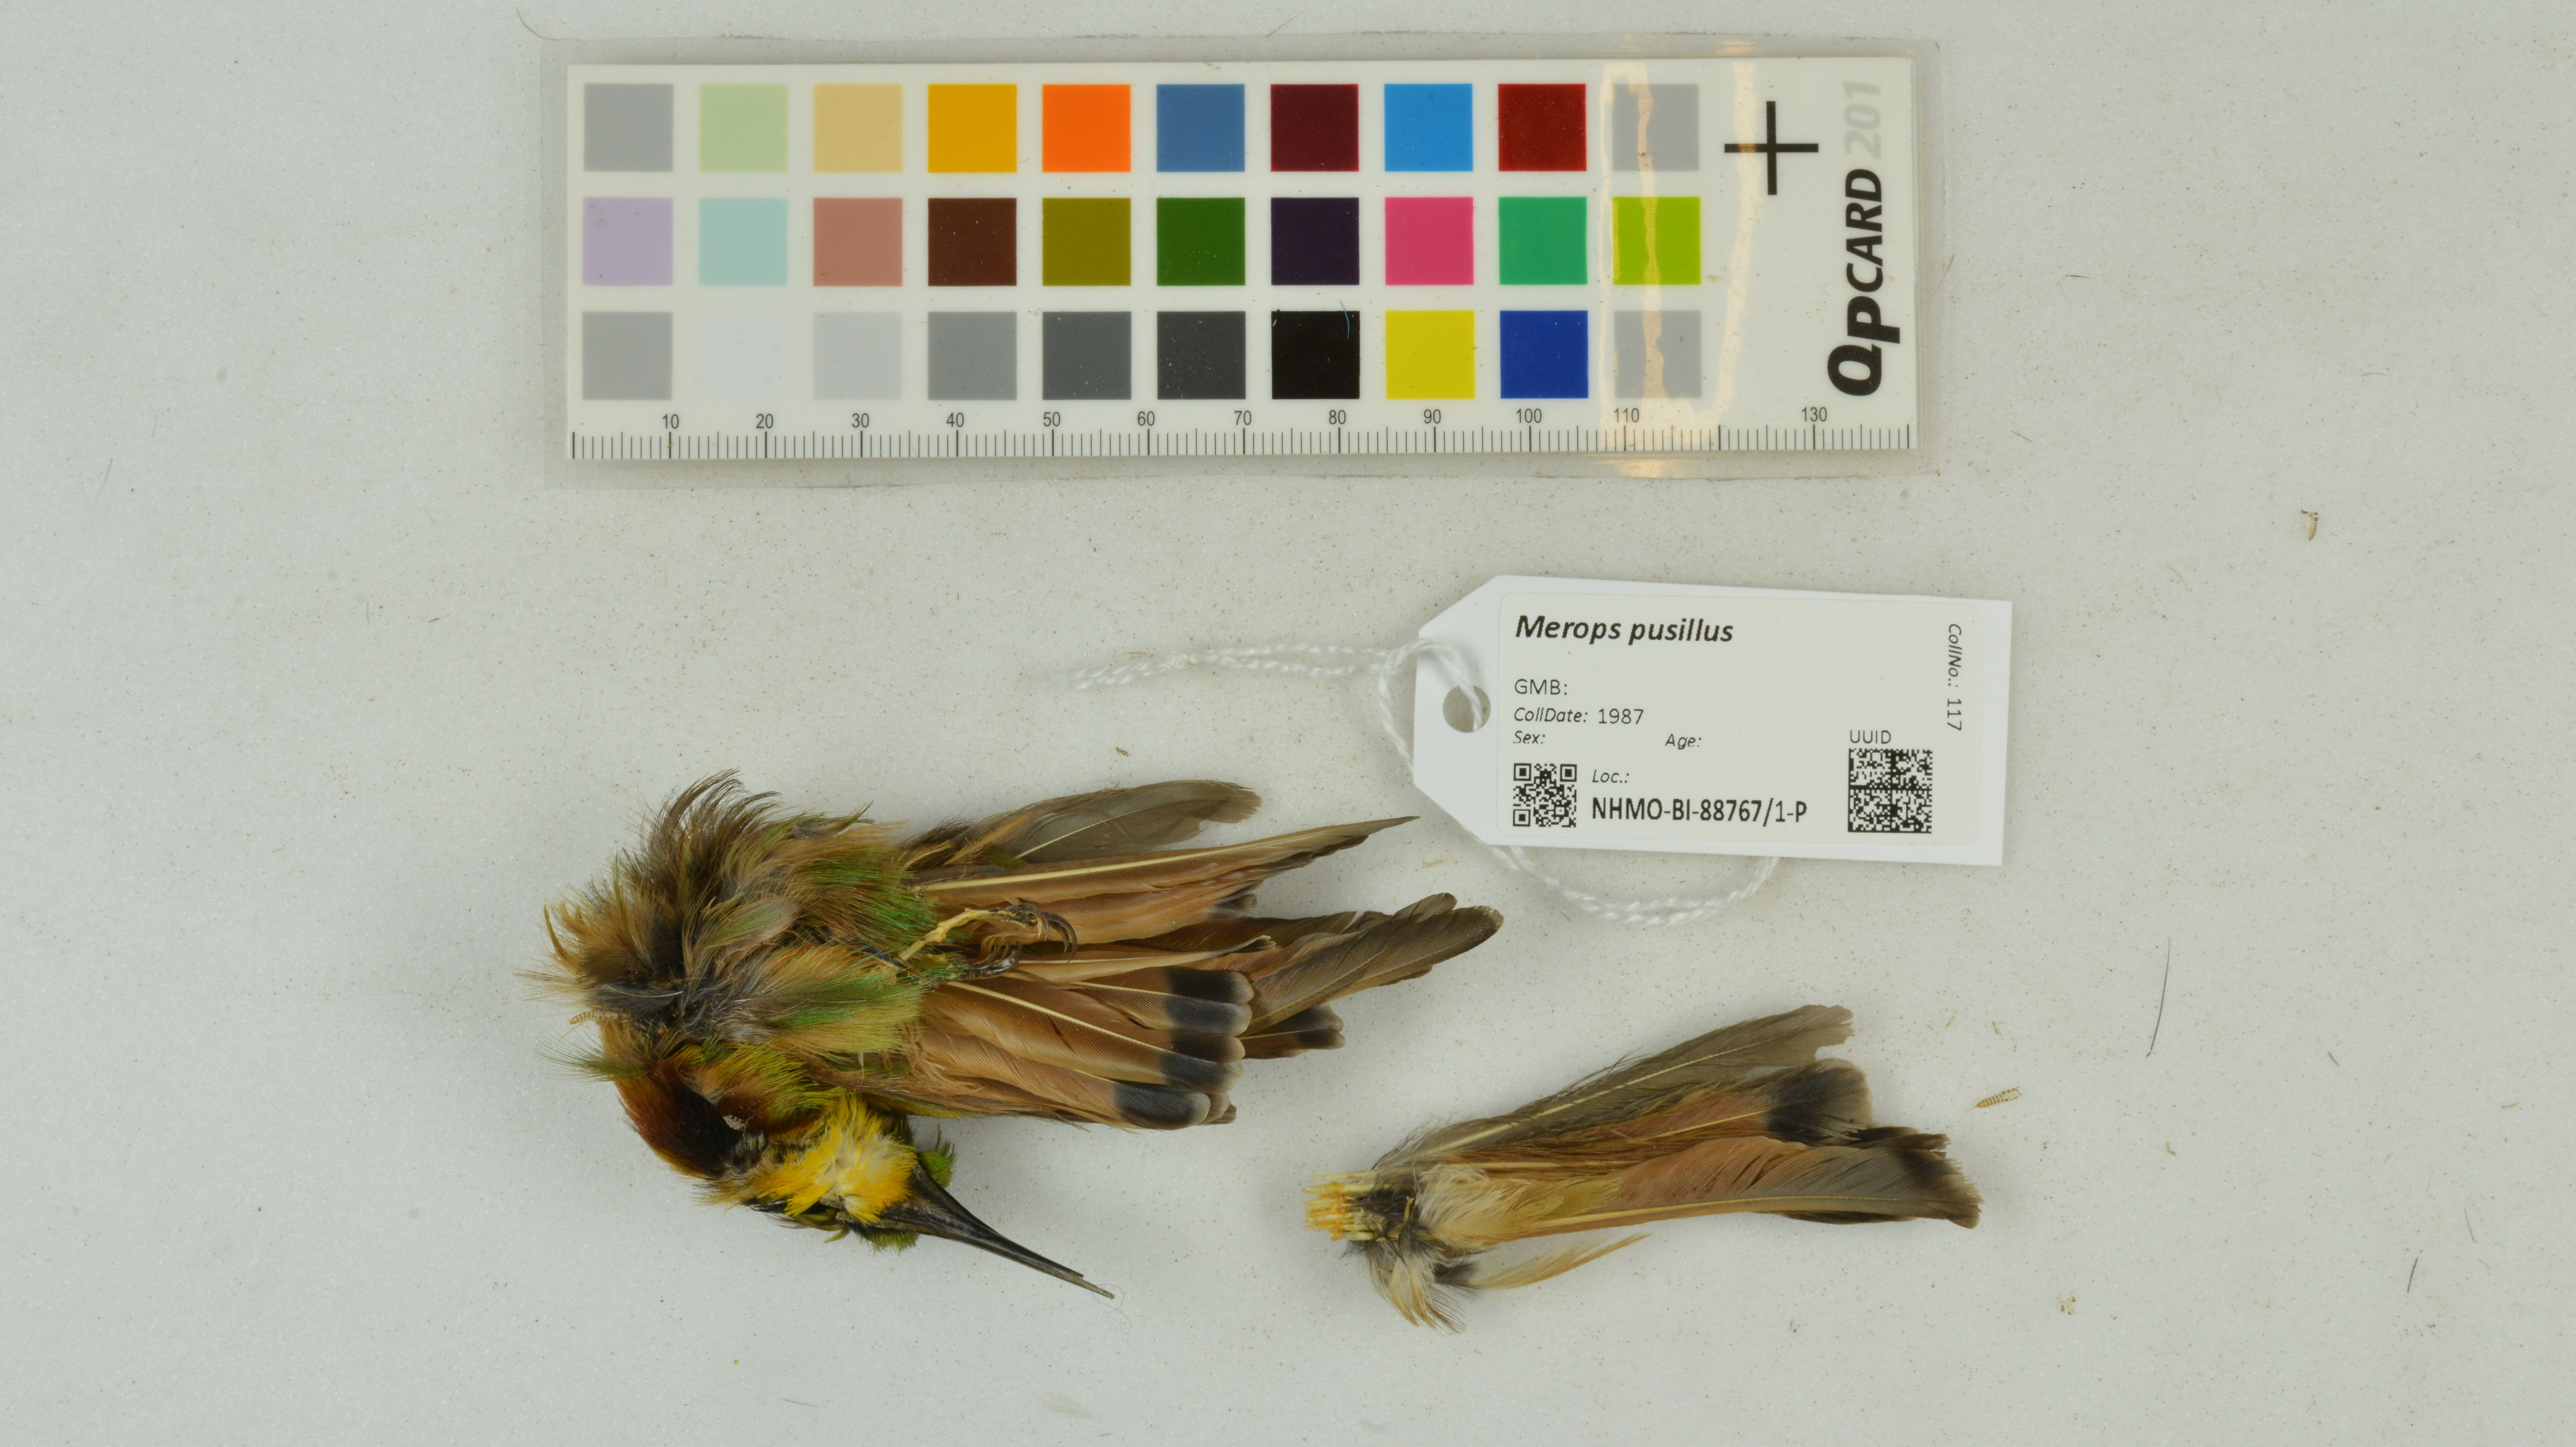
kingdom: Animalia
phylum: Chordata
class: Aves
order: Coraciiformes
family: Meropidae
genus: Merops
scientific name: Merops pusillus
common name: Little bee-eater
